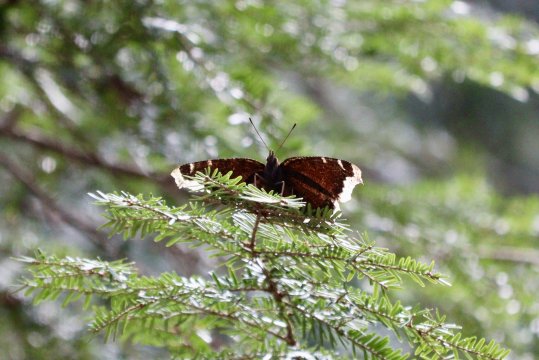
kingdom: Animalia
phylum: Arthropoda
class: Insecta
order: Lepidoptera
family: Nymphalidae
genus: Nymphalis
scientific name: Nymphalis antiopa
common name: Mourning Cloak
